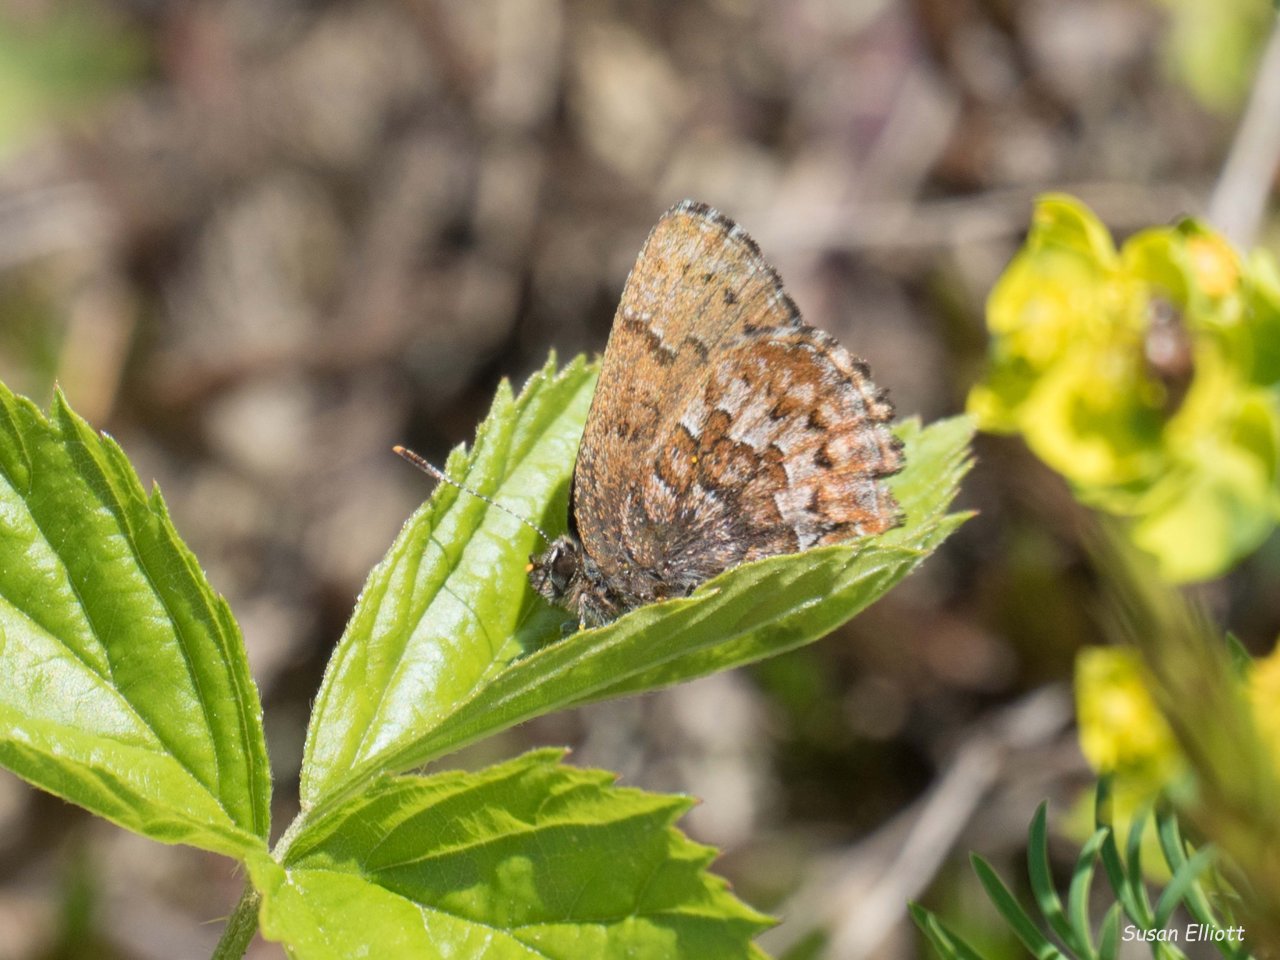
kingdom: Animalia
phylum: Arthropoda
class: Insecta
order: Lepidoptera
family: Lycaenidae
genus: Incisalia
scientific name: Incisalia niphon
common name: Eastern Pine Elfin
